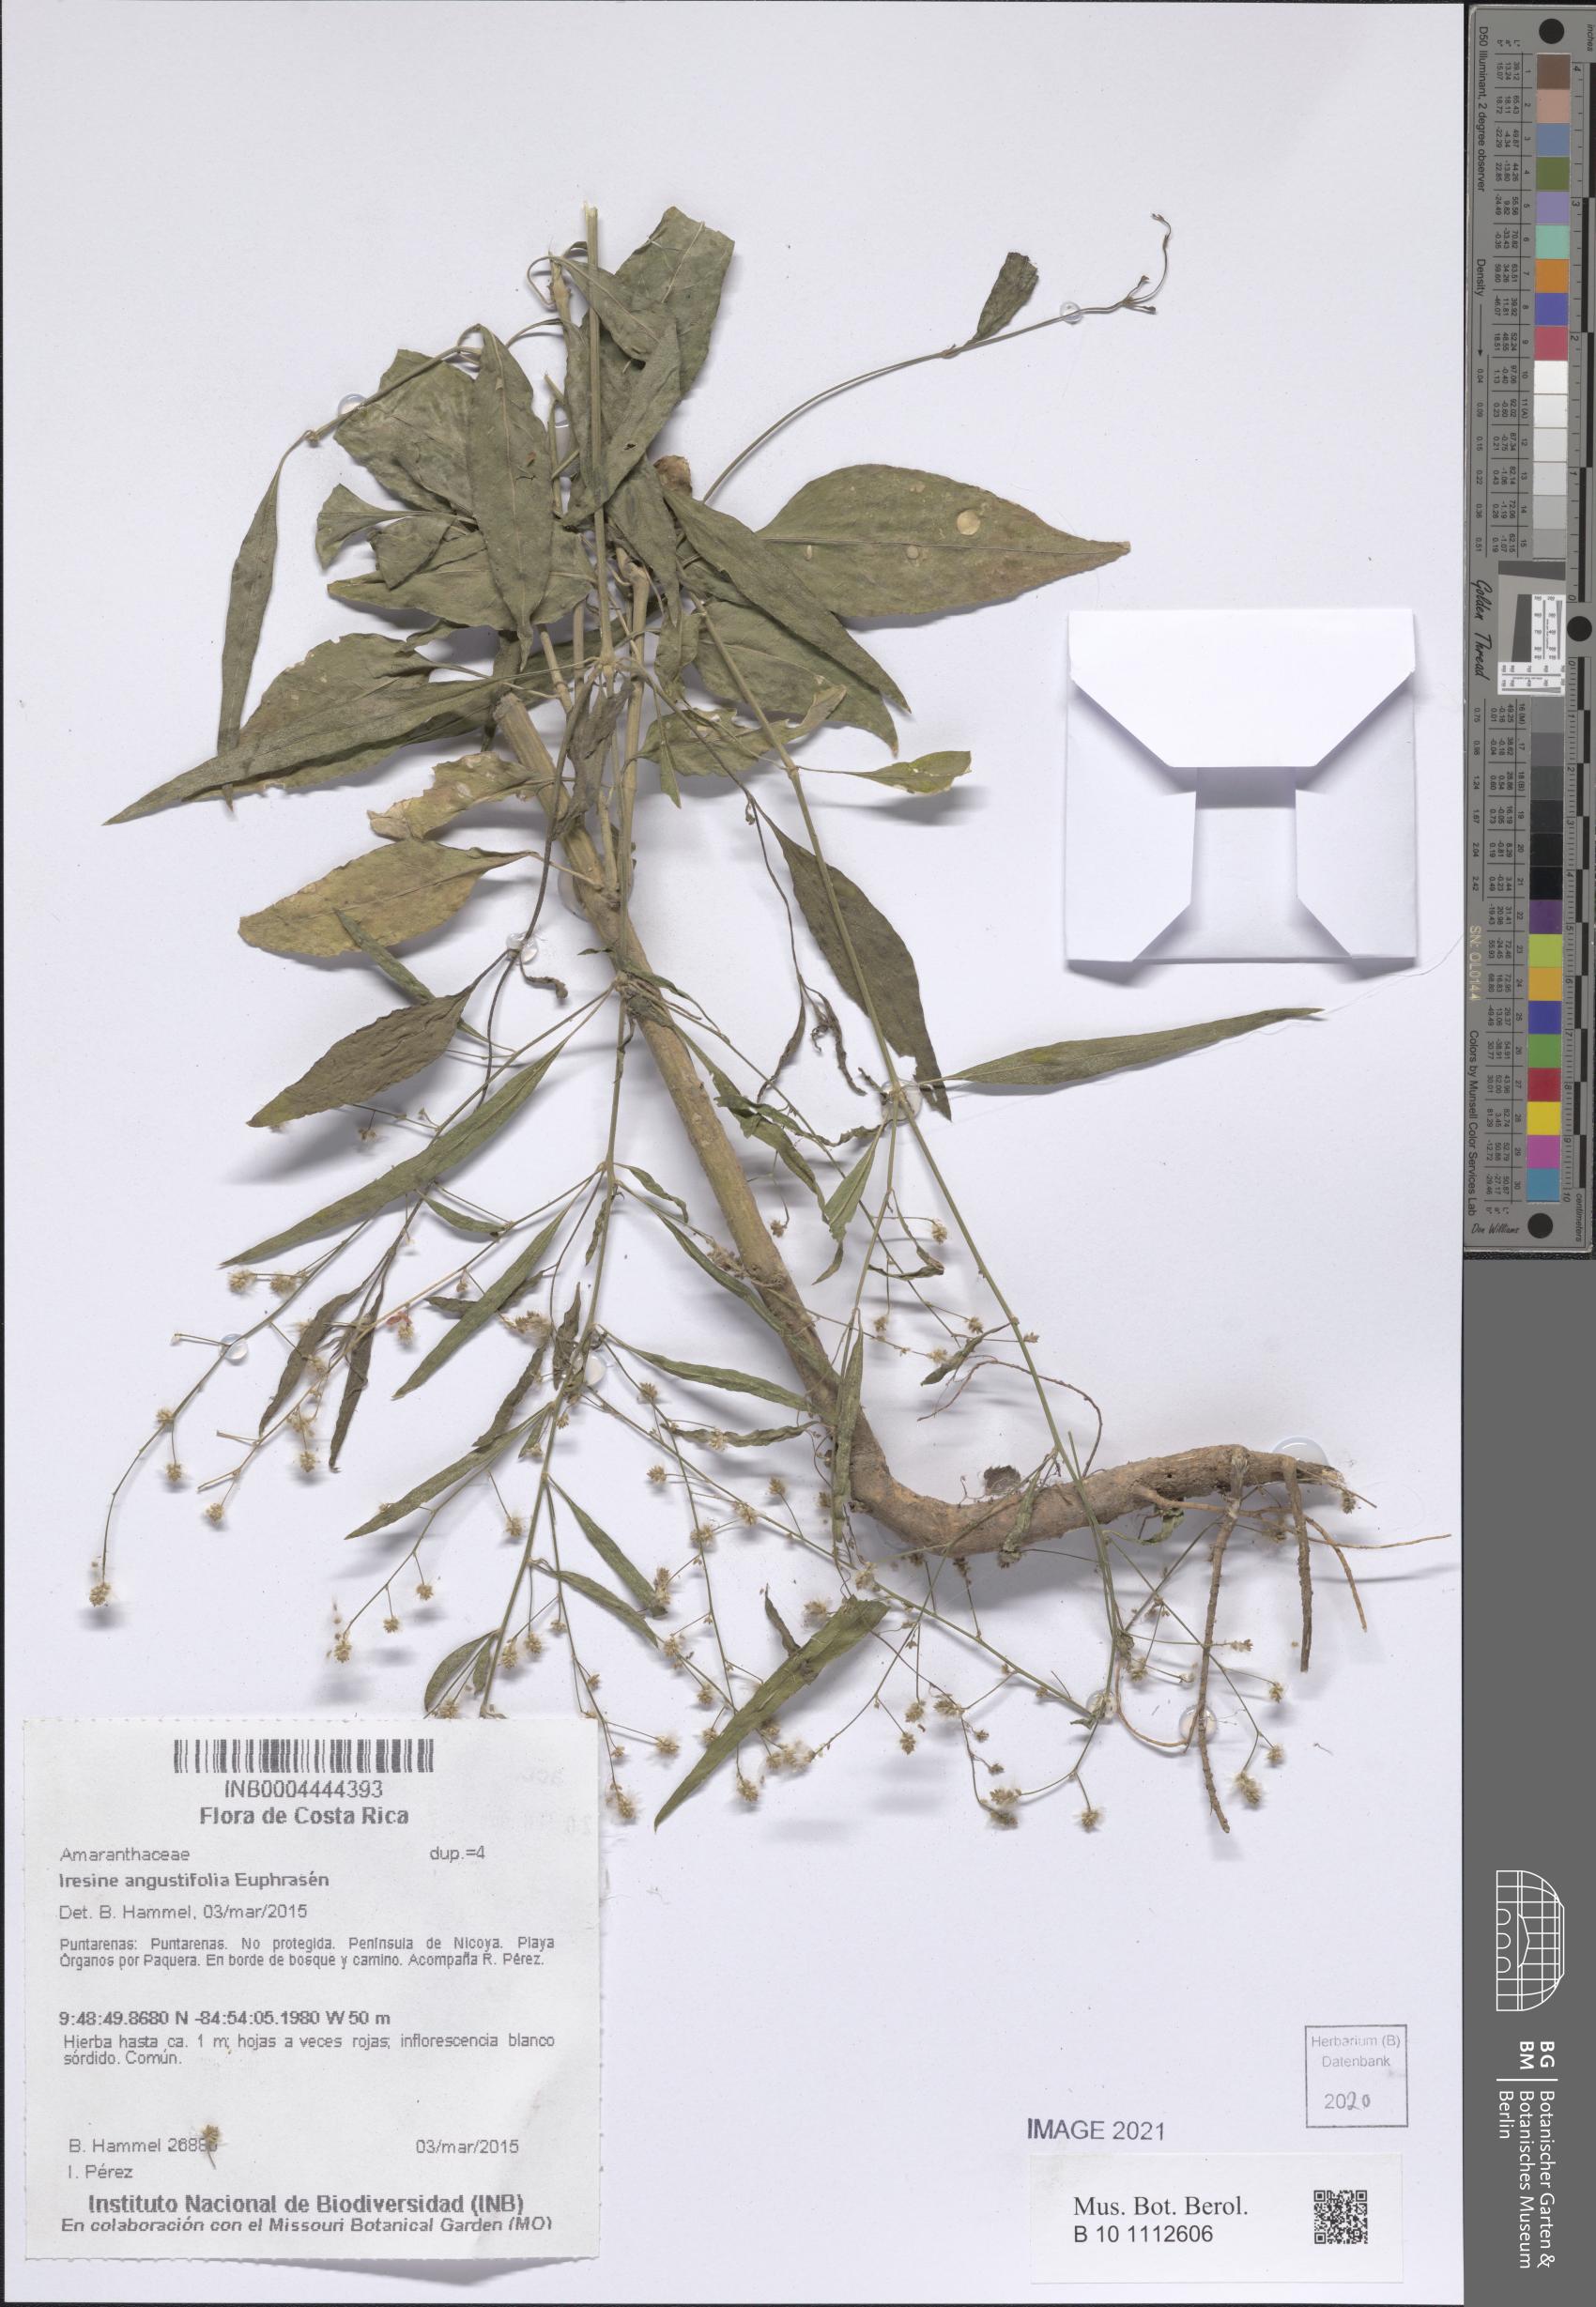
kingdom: Plantae
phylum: Tracheophyta
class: Magnoliopsida
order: Caryophyllales
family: Amaranthaceae
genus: Iresine
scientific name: Iresine angustifolia
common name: White snowplant
